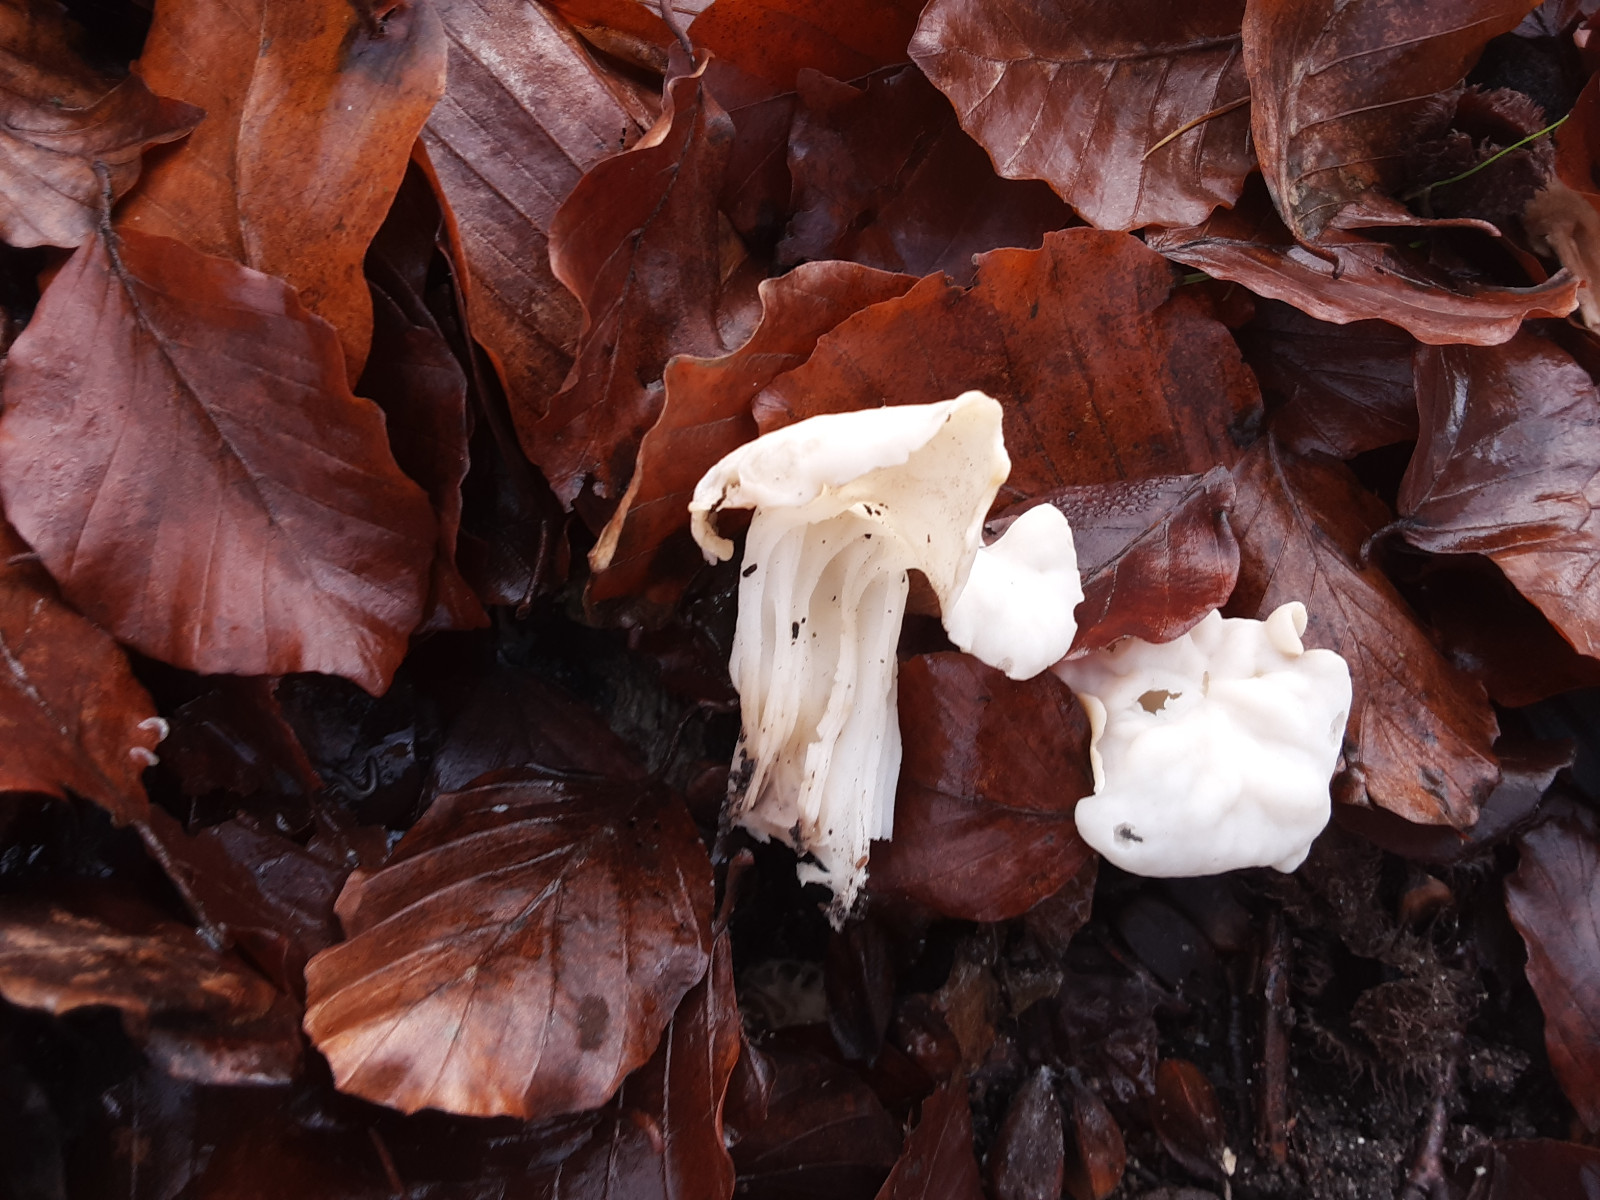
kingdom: Fungi
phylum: Ascomycota
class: Pezizomycetes
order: Pezizales
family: Helvellaceae
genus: Helvella
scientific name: Helvella crispa
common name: kruset foldhat
